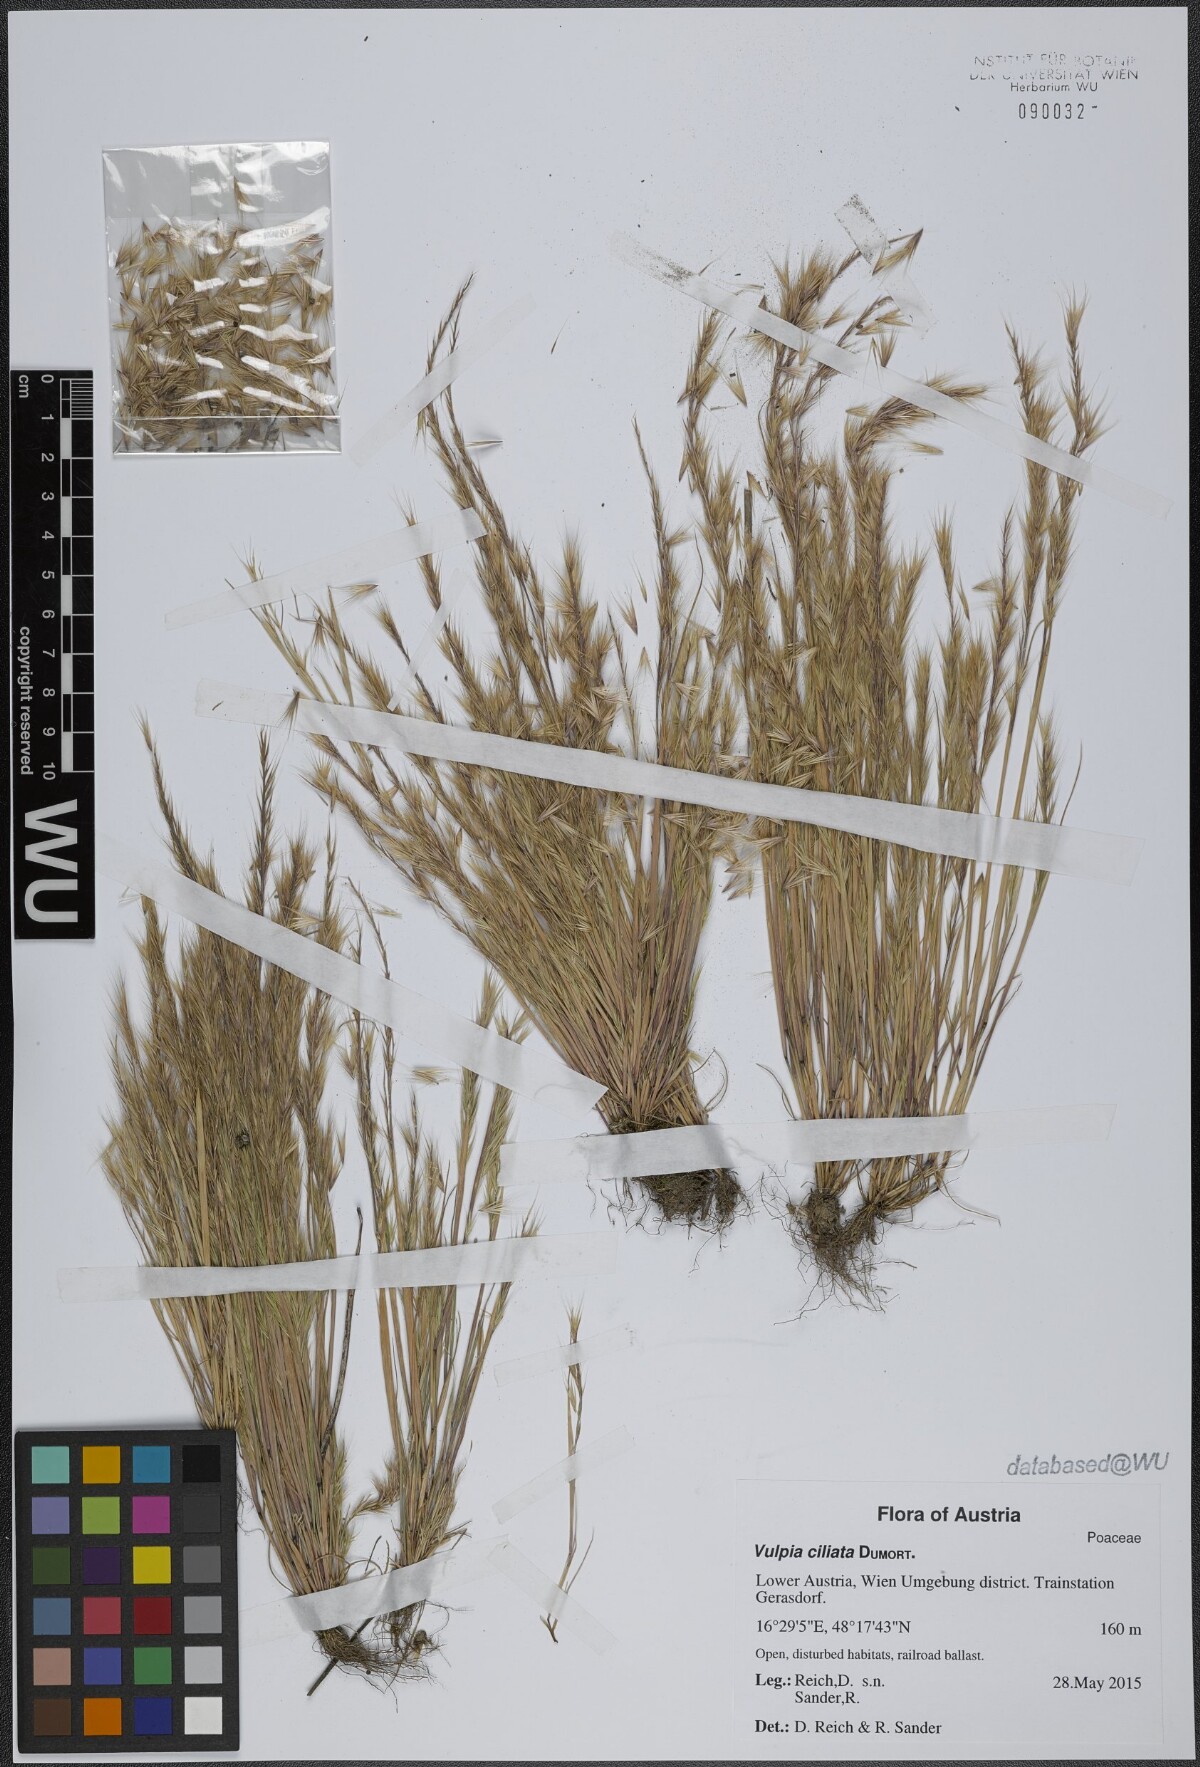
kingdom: Plantae
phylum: Tracheophyta
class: Liliopsida
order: Poales
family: Poaceae
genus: Festuca
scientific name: Festuca ambigua
